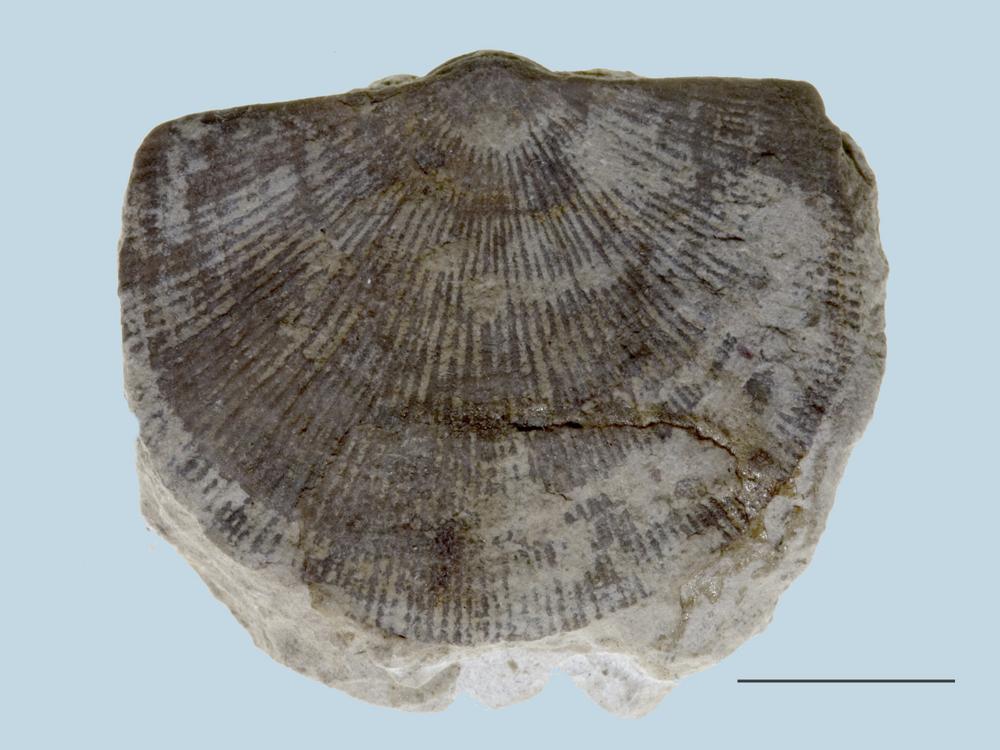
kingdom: Animalia
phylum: Brachiopoda
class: Rhynchonellata
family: Clitambonitidae
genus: Vellamo
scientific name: Vellamo Orthis verneuili
